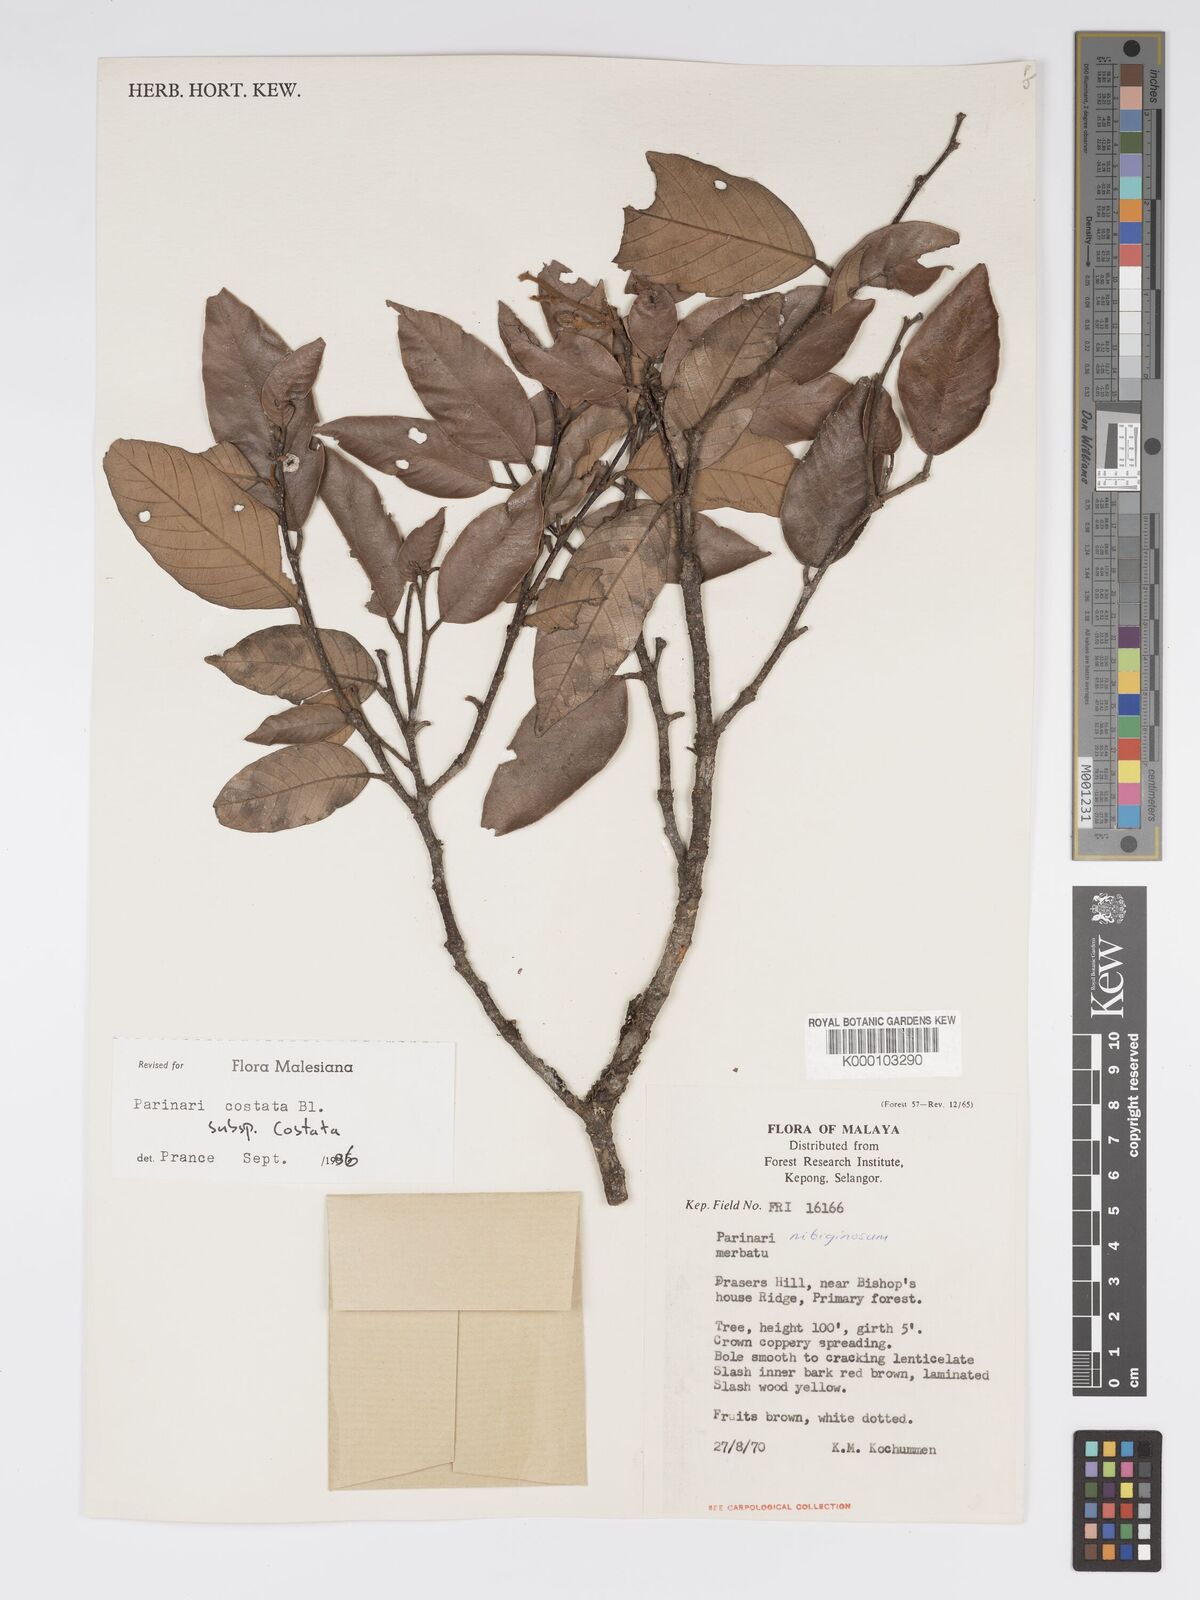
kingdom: Plantae
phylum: Tracheophyta
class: Magnoliopsida
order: Malpighiales
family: Chrysobalanaceae
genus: Parinari
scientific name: Parinari costata
